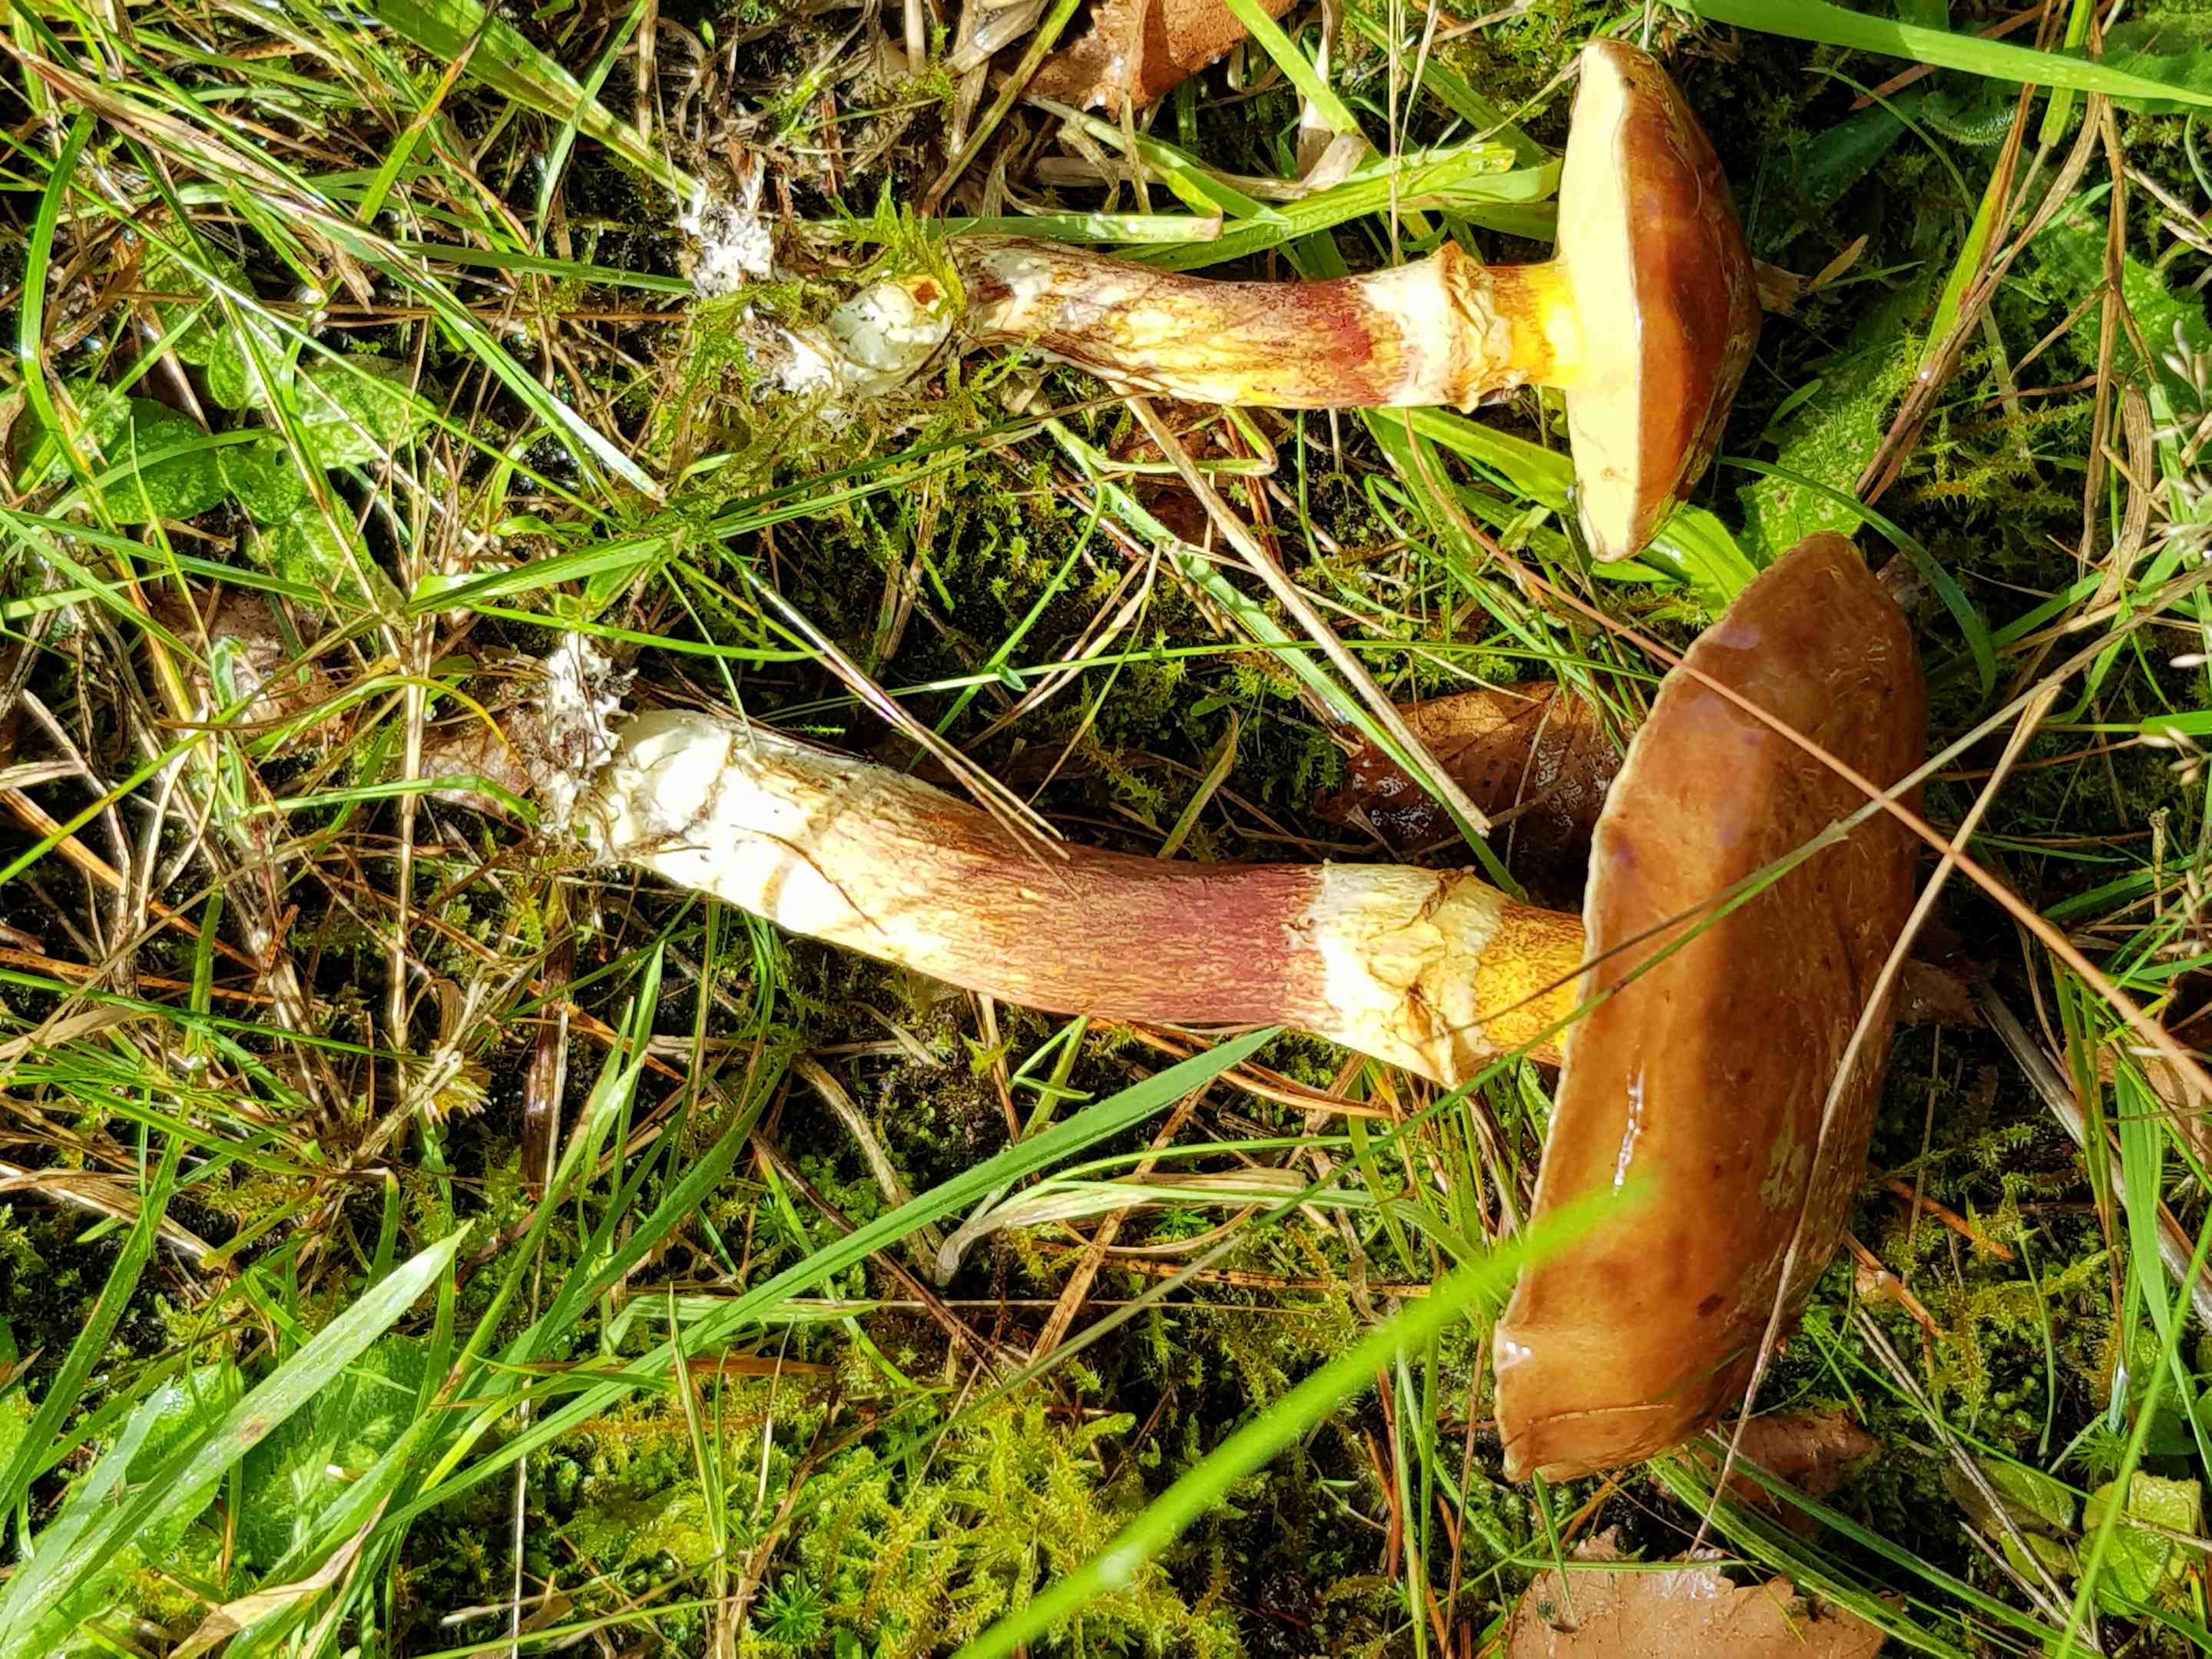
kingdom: Fungi
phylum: Basidiomycota
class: Agaricomycetes
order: Boletales
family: Suillaceae
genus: Suillus
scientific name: Suillus grevillei
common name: lærke-slimrørhat
